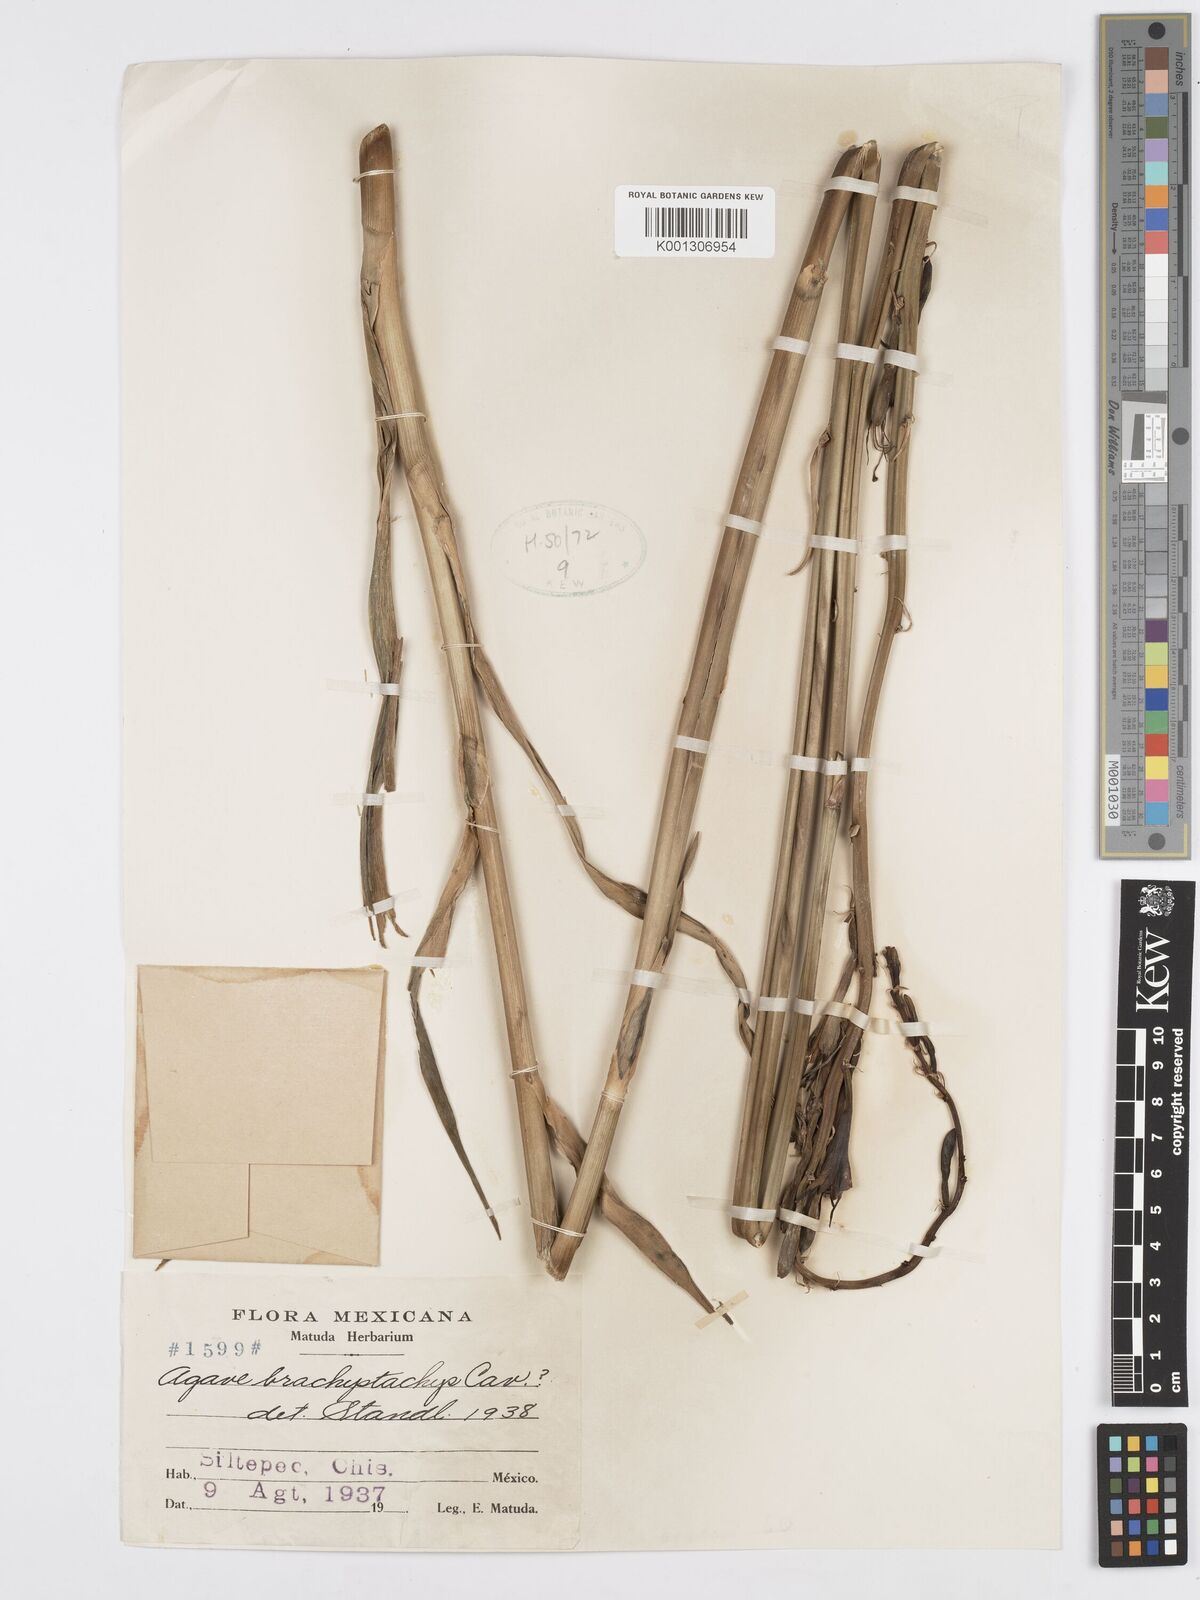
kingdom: Plantae
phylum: Tracheophyta
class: Liliopsida
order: Asparagales
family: Asparagaceae
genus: Agave
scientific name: Agave scabra
